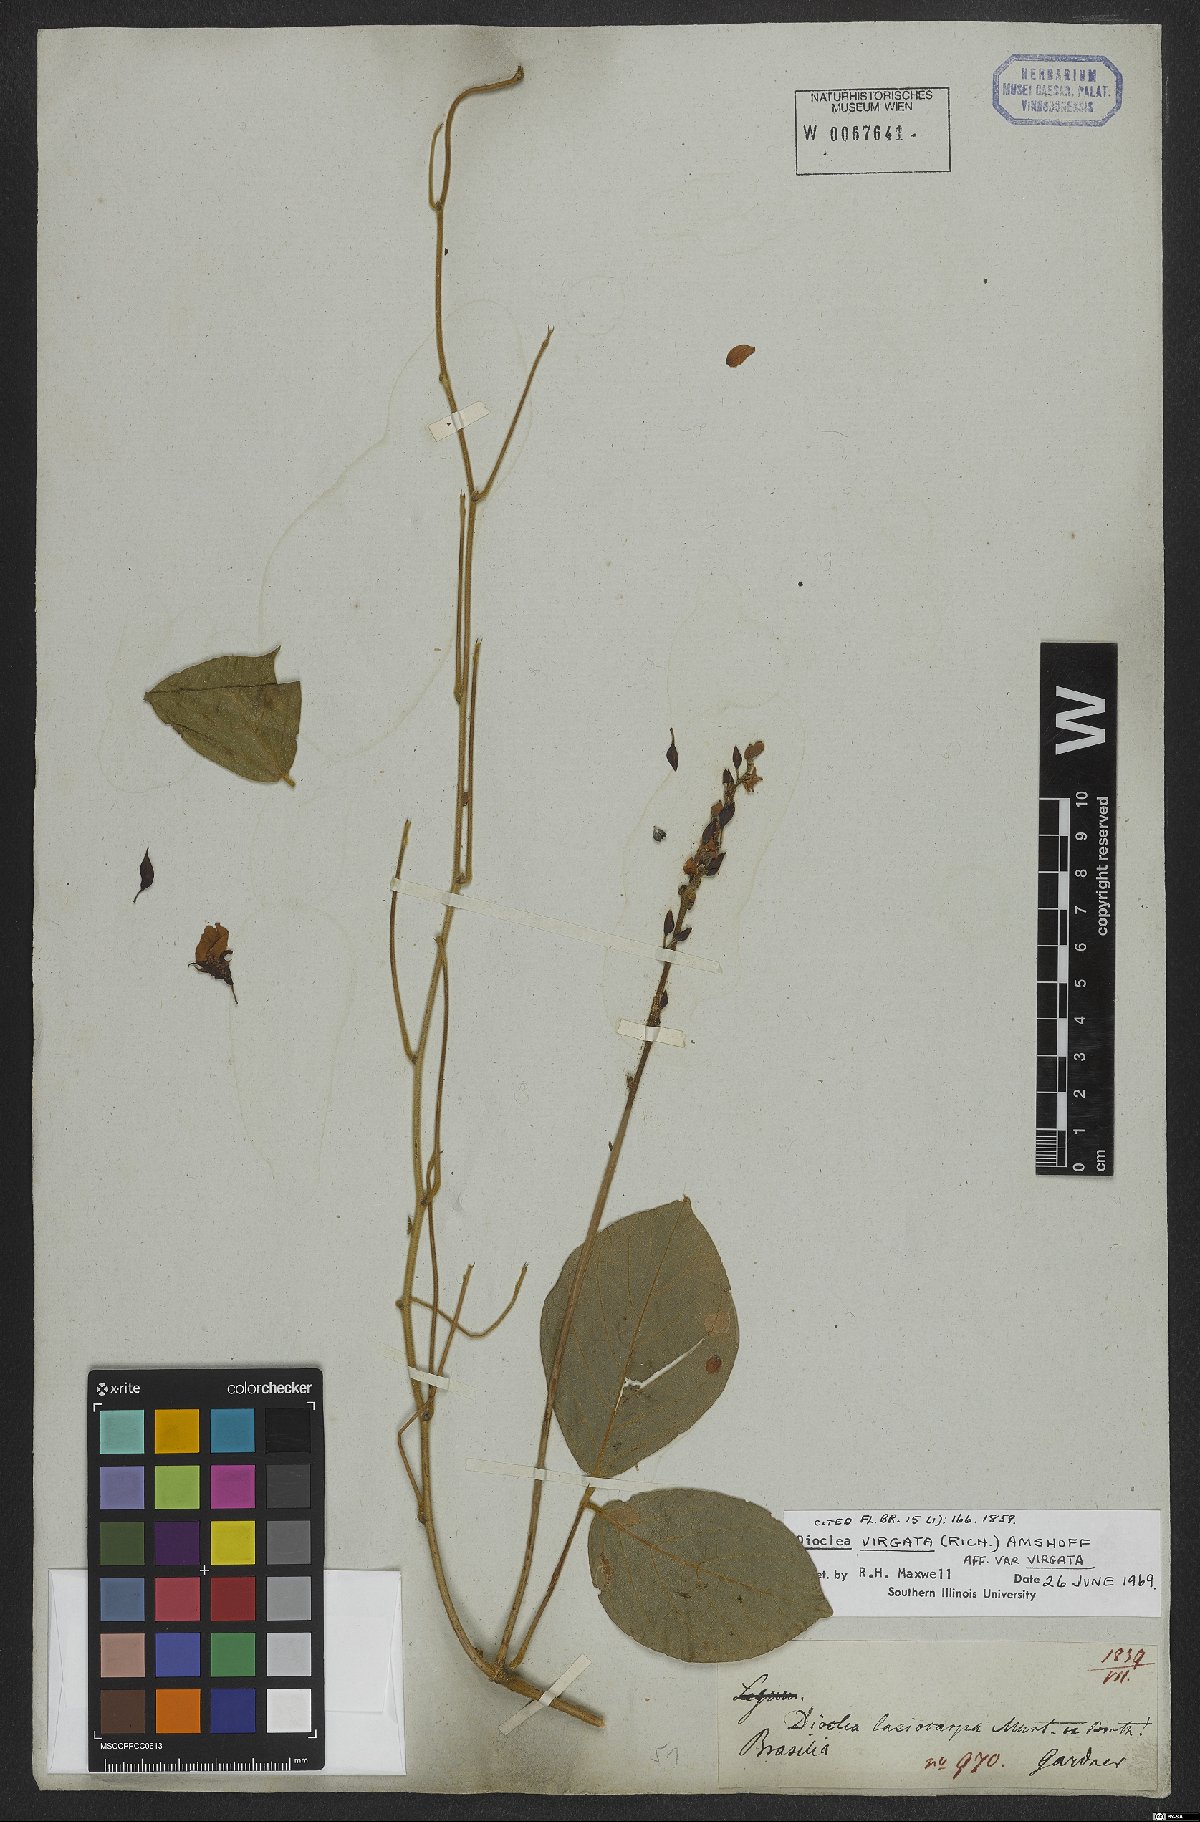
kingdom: Plantae
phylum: Tracheophyta
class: Magnoliopsida
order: Fabales
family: Fabaceae
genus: Dioclea
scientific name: Dioclea virgata
